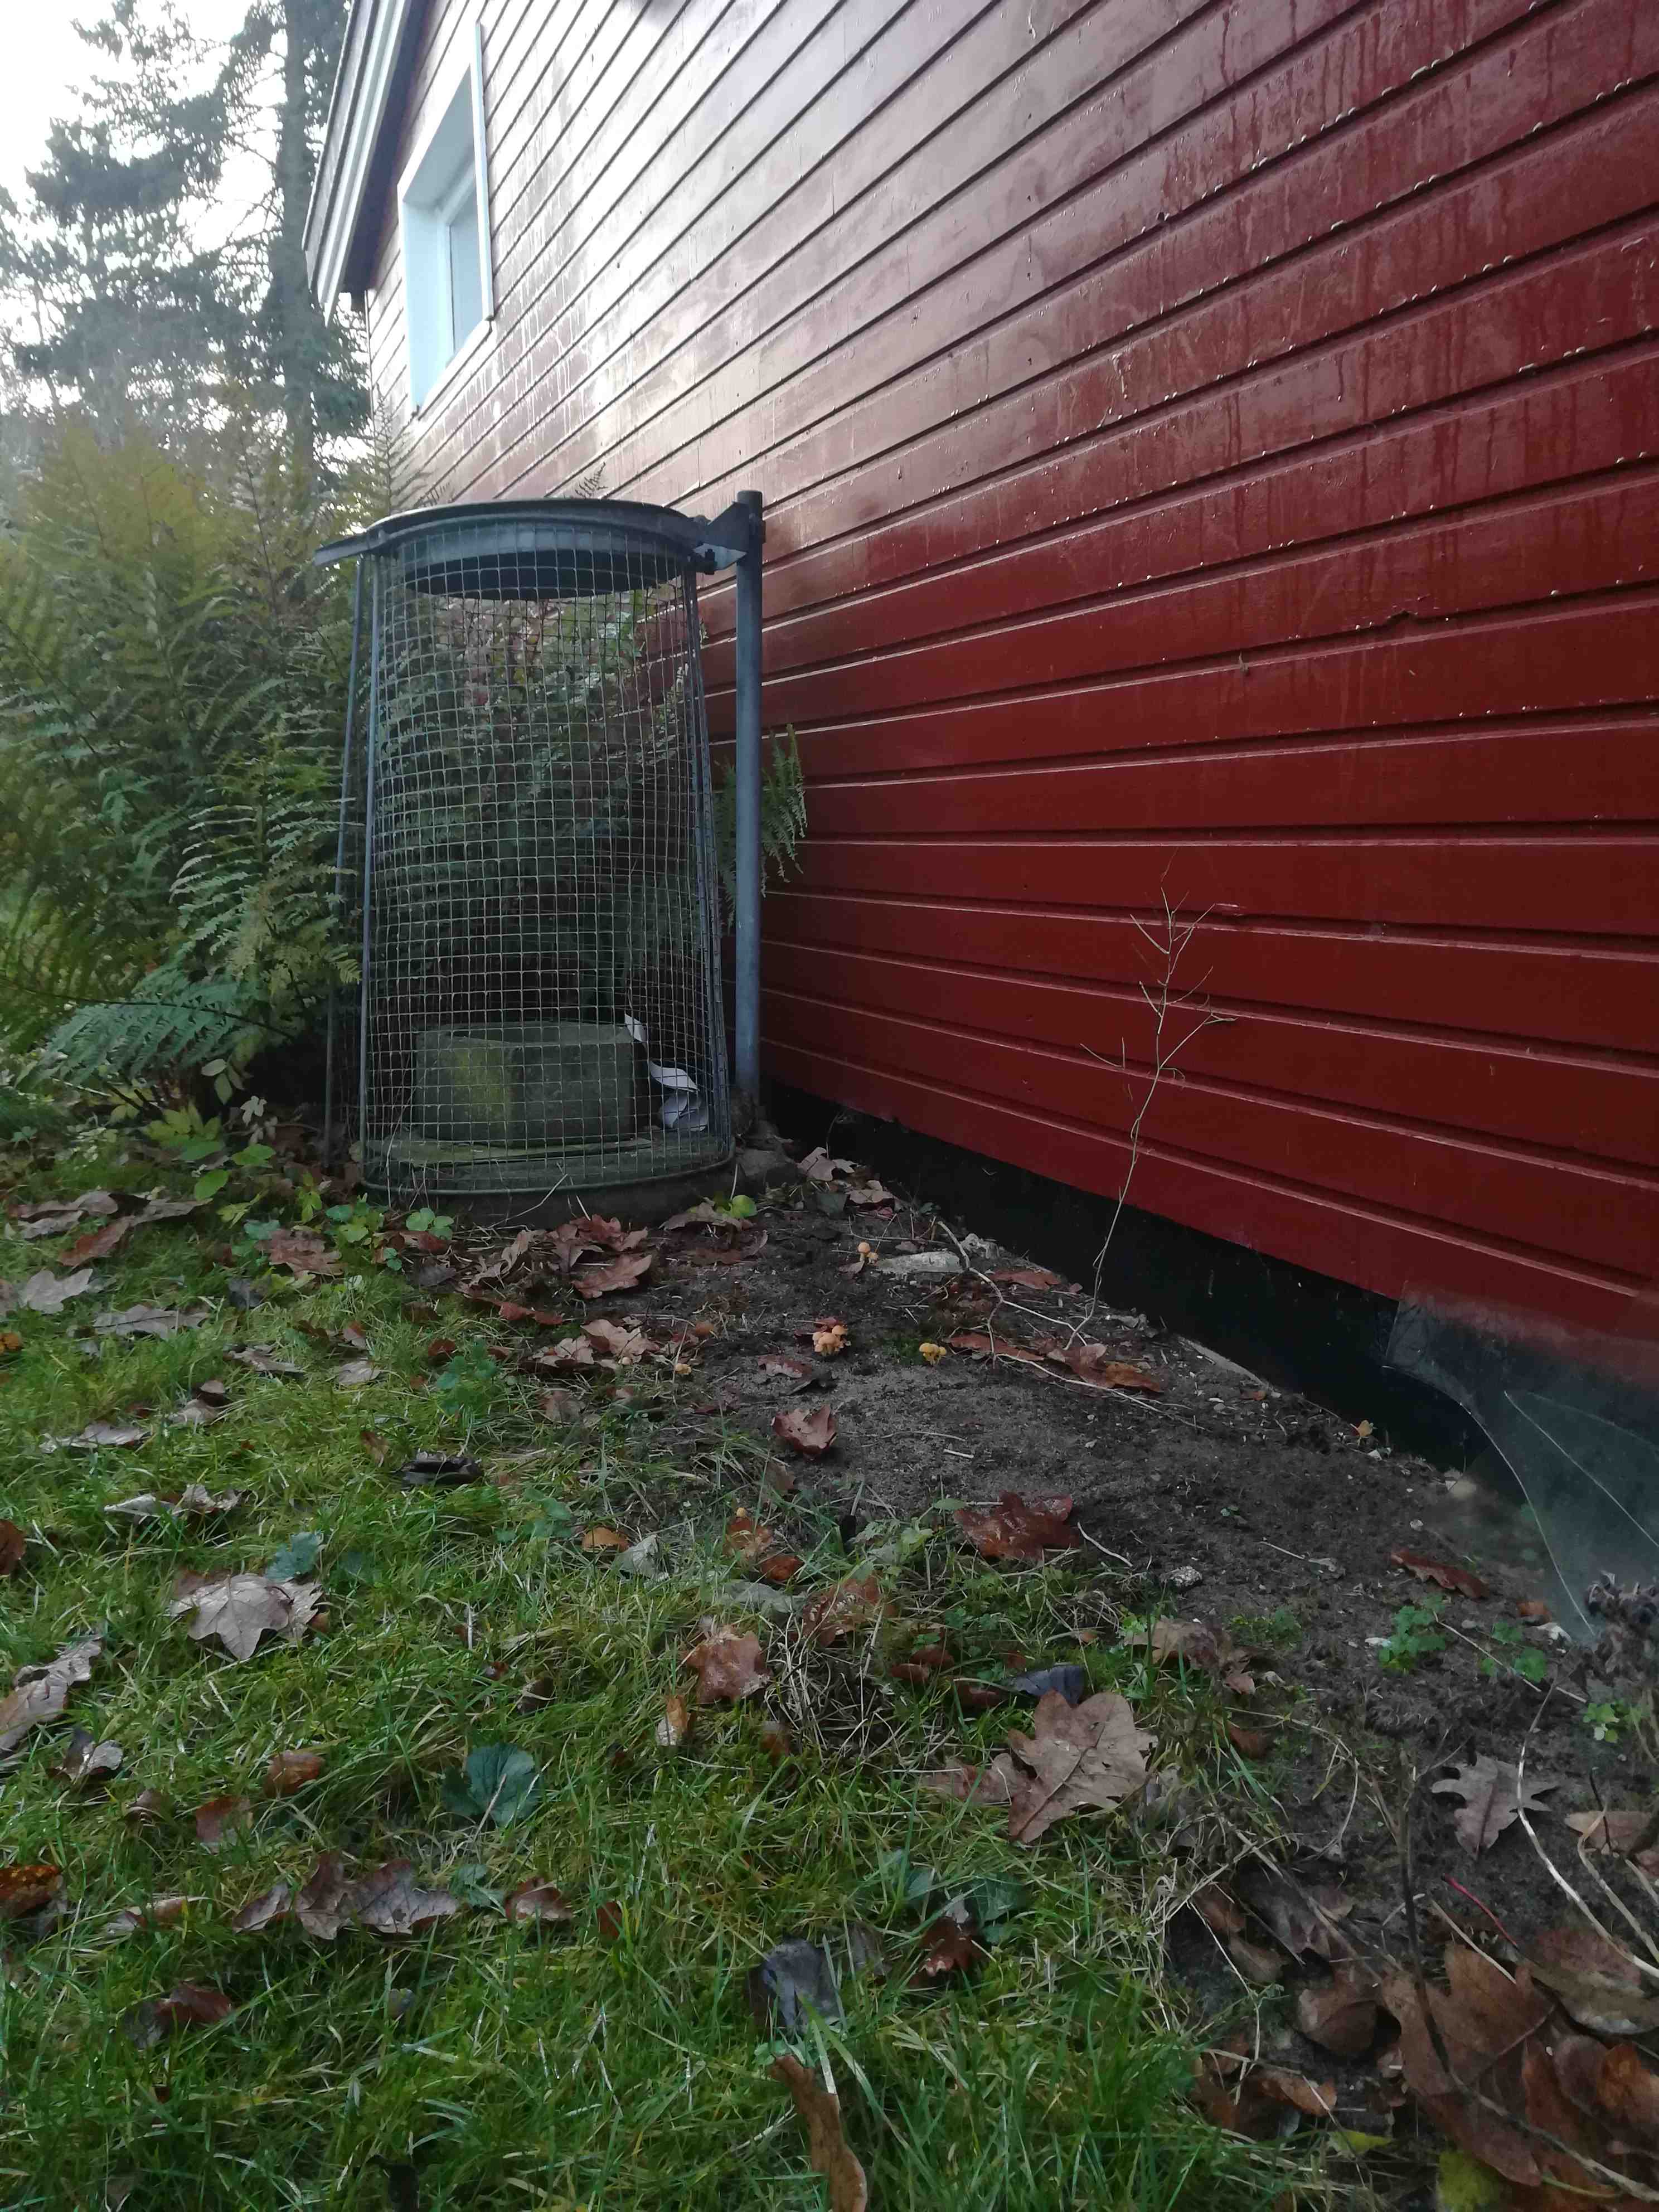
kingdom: Fungi
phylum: Basidiomycota
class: Agaricomycetes
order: Agaricales
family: Strophariaceae
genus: Hypholoma
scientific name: Hypholoma fasciculare
